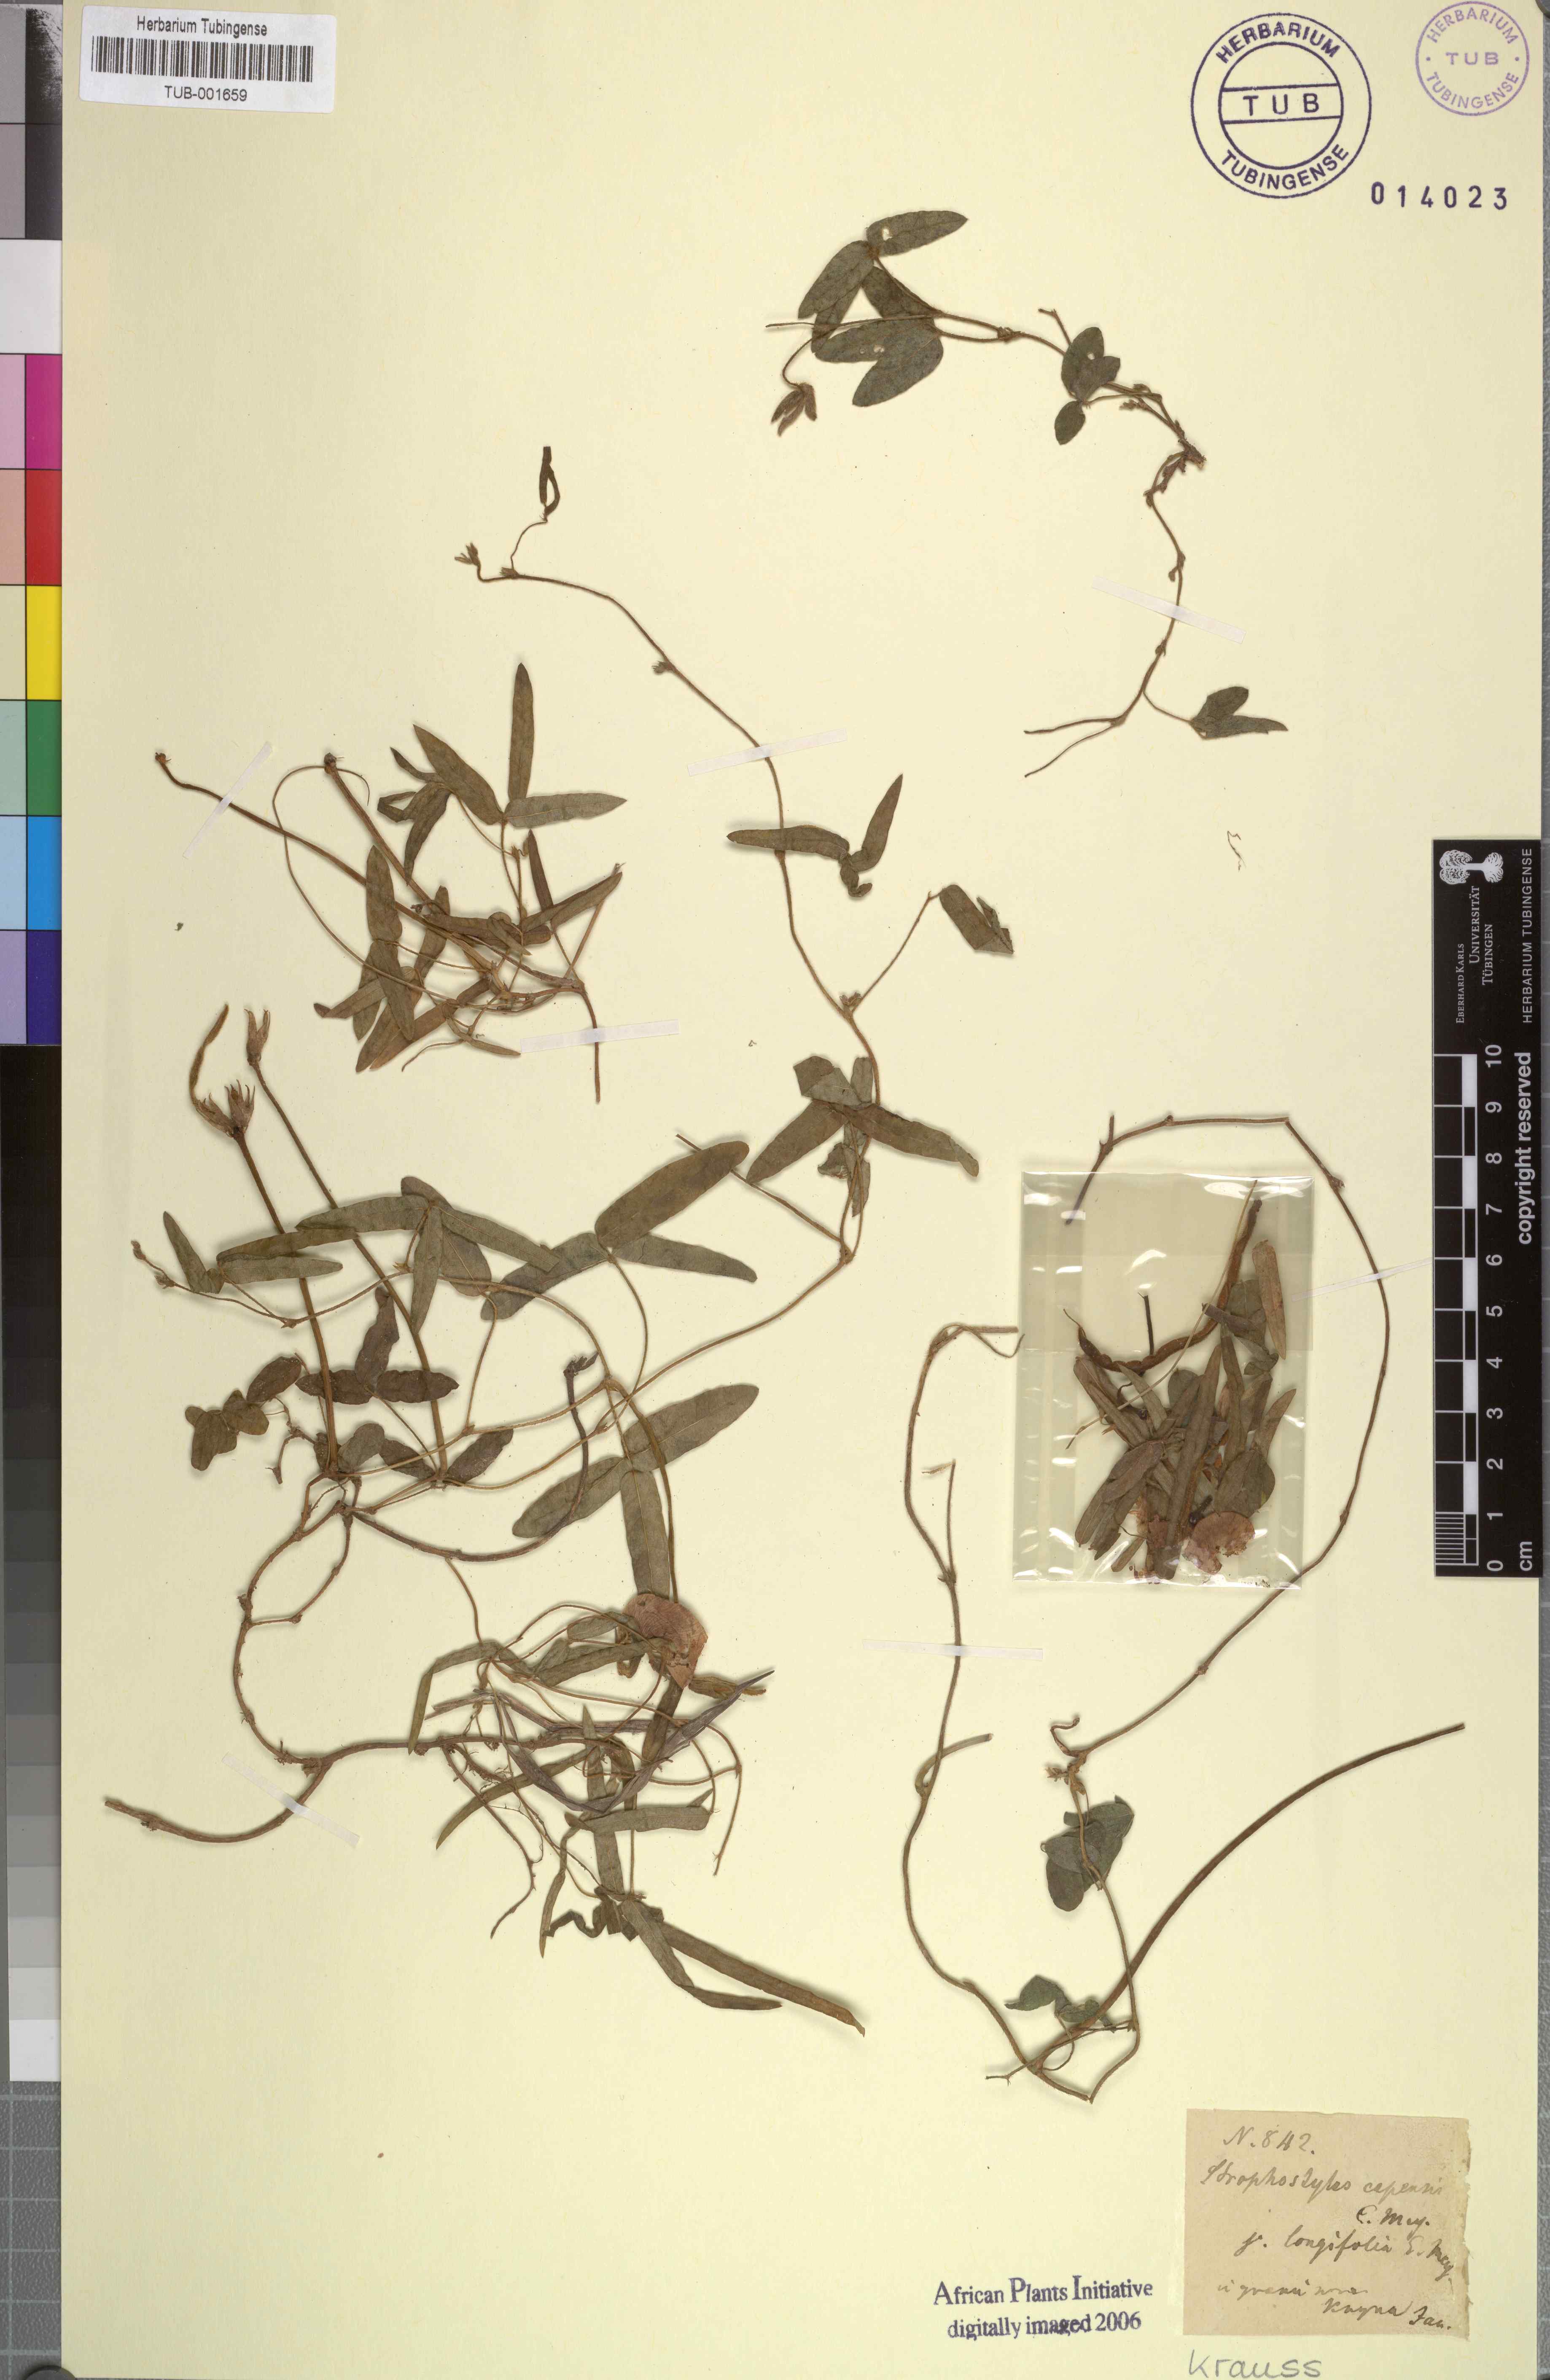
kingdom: Plantae
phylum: Tracheophyta
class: Magnoliopsida
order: Fabales
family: Fabaceae
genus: Vigna
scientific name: Vigna vexillata
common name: Zombi pea
